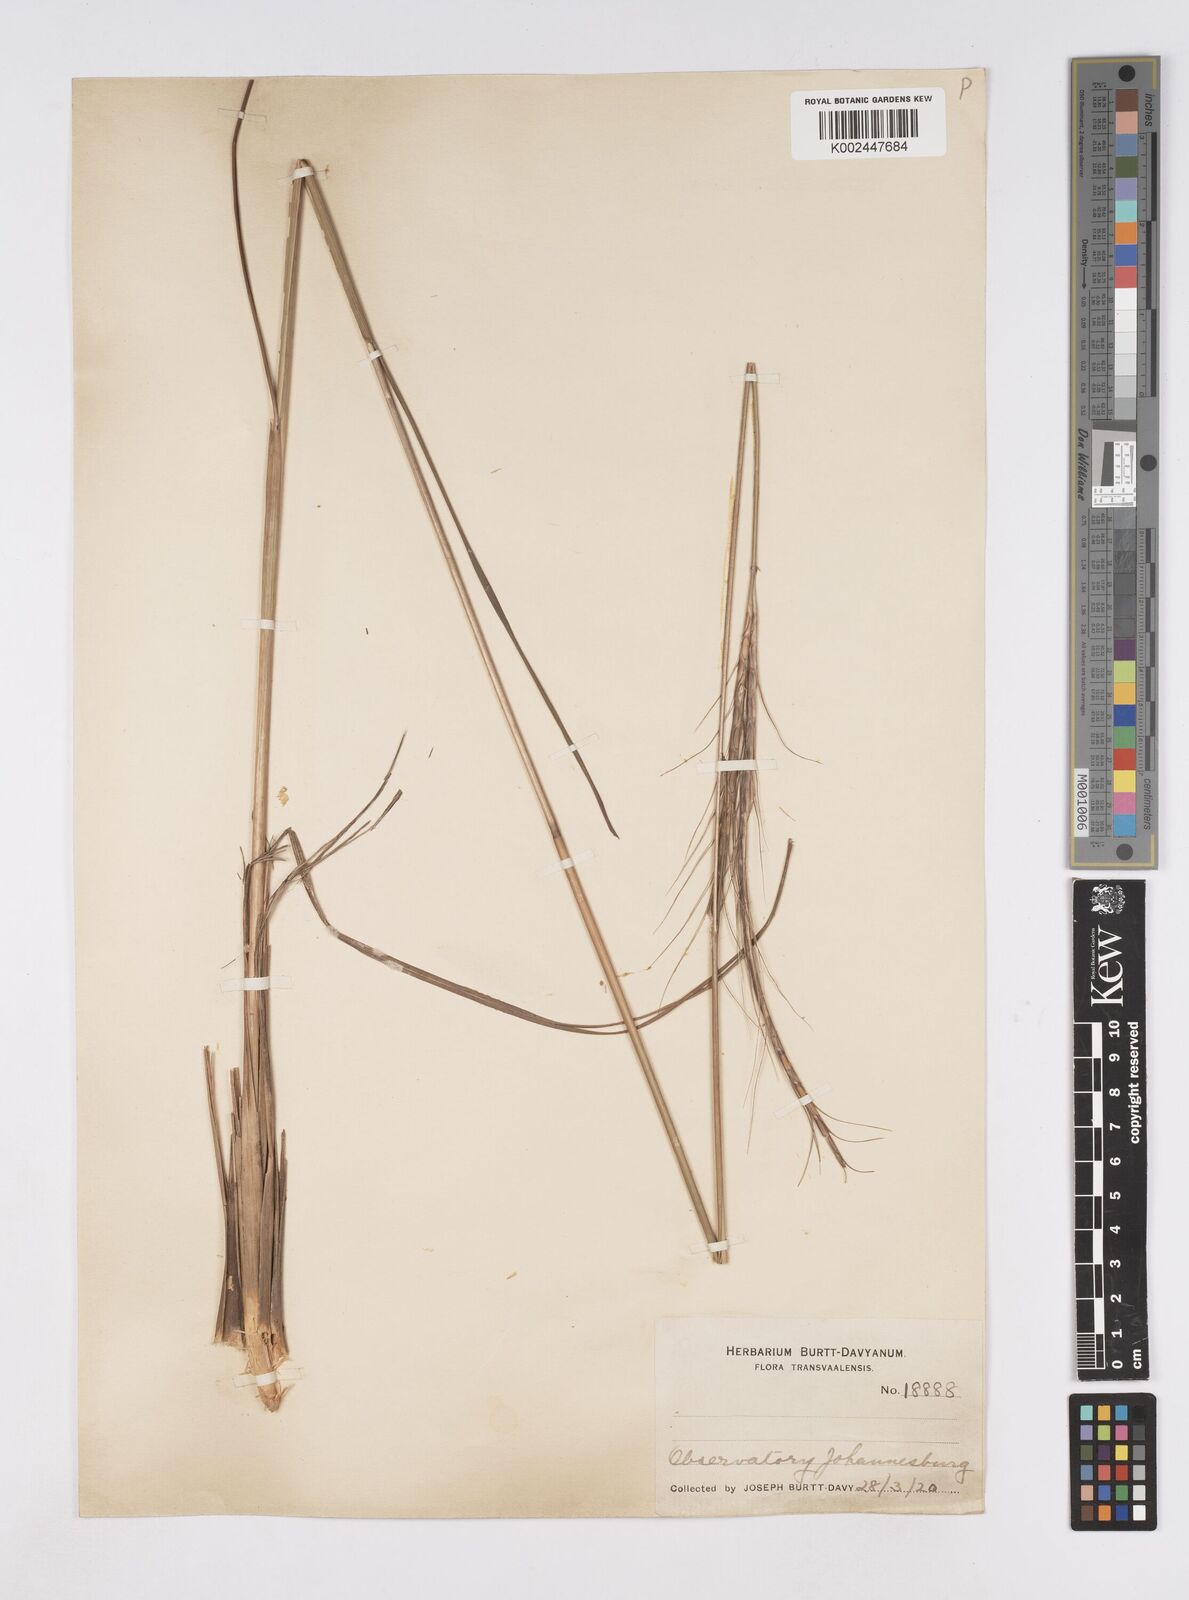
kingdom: Plantae
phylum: Tracheophyta
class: Liliopsida
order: Poales
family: Poaceae
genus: Urelytrum
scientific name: Urelytrum agropyroides
